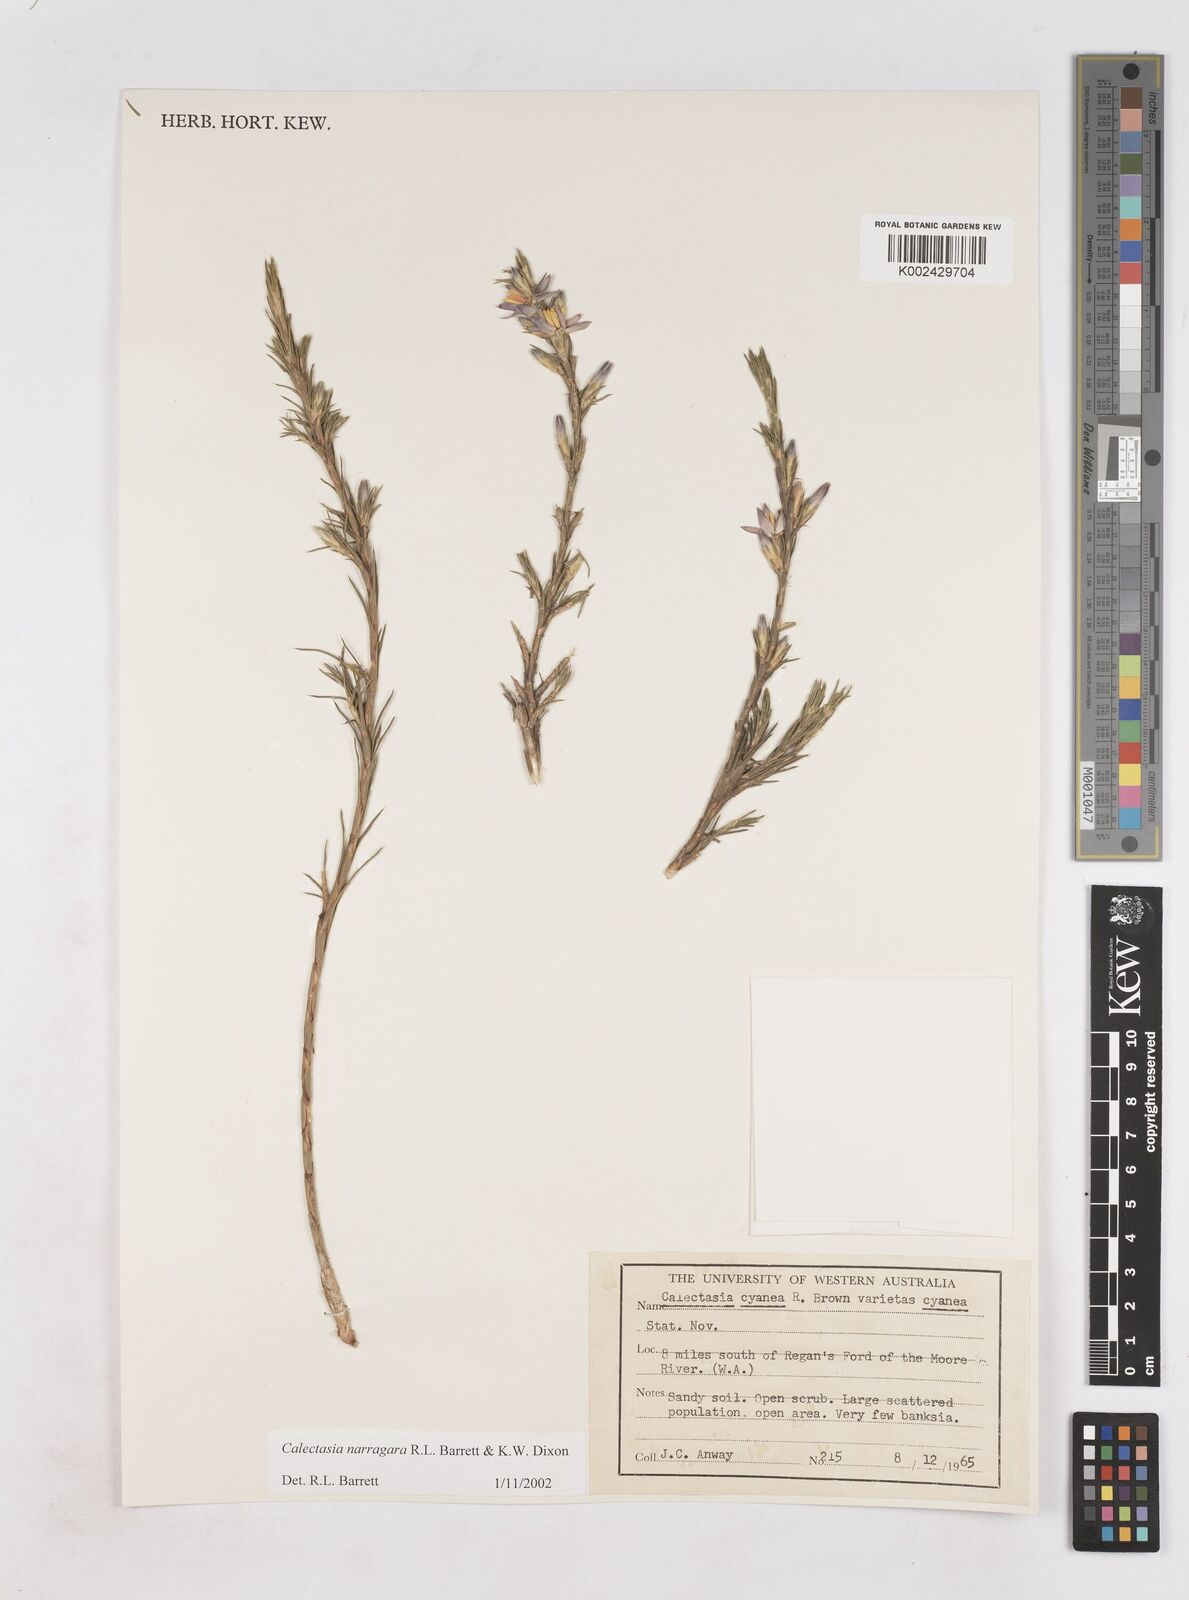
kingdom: Plantae
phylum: Tracheophyta
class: Liliopsida
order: Arecales
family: Dasypogonaceae
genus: Calectasia
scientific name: Calectasia narragara
